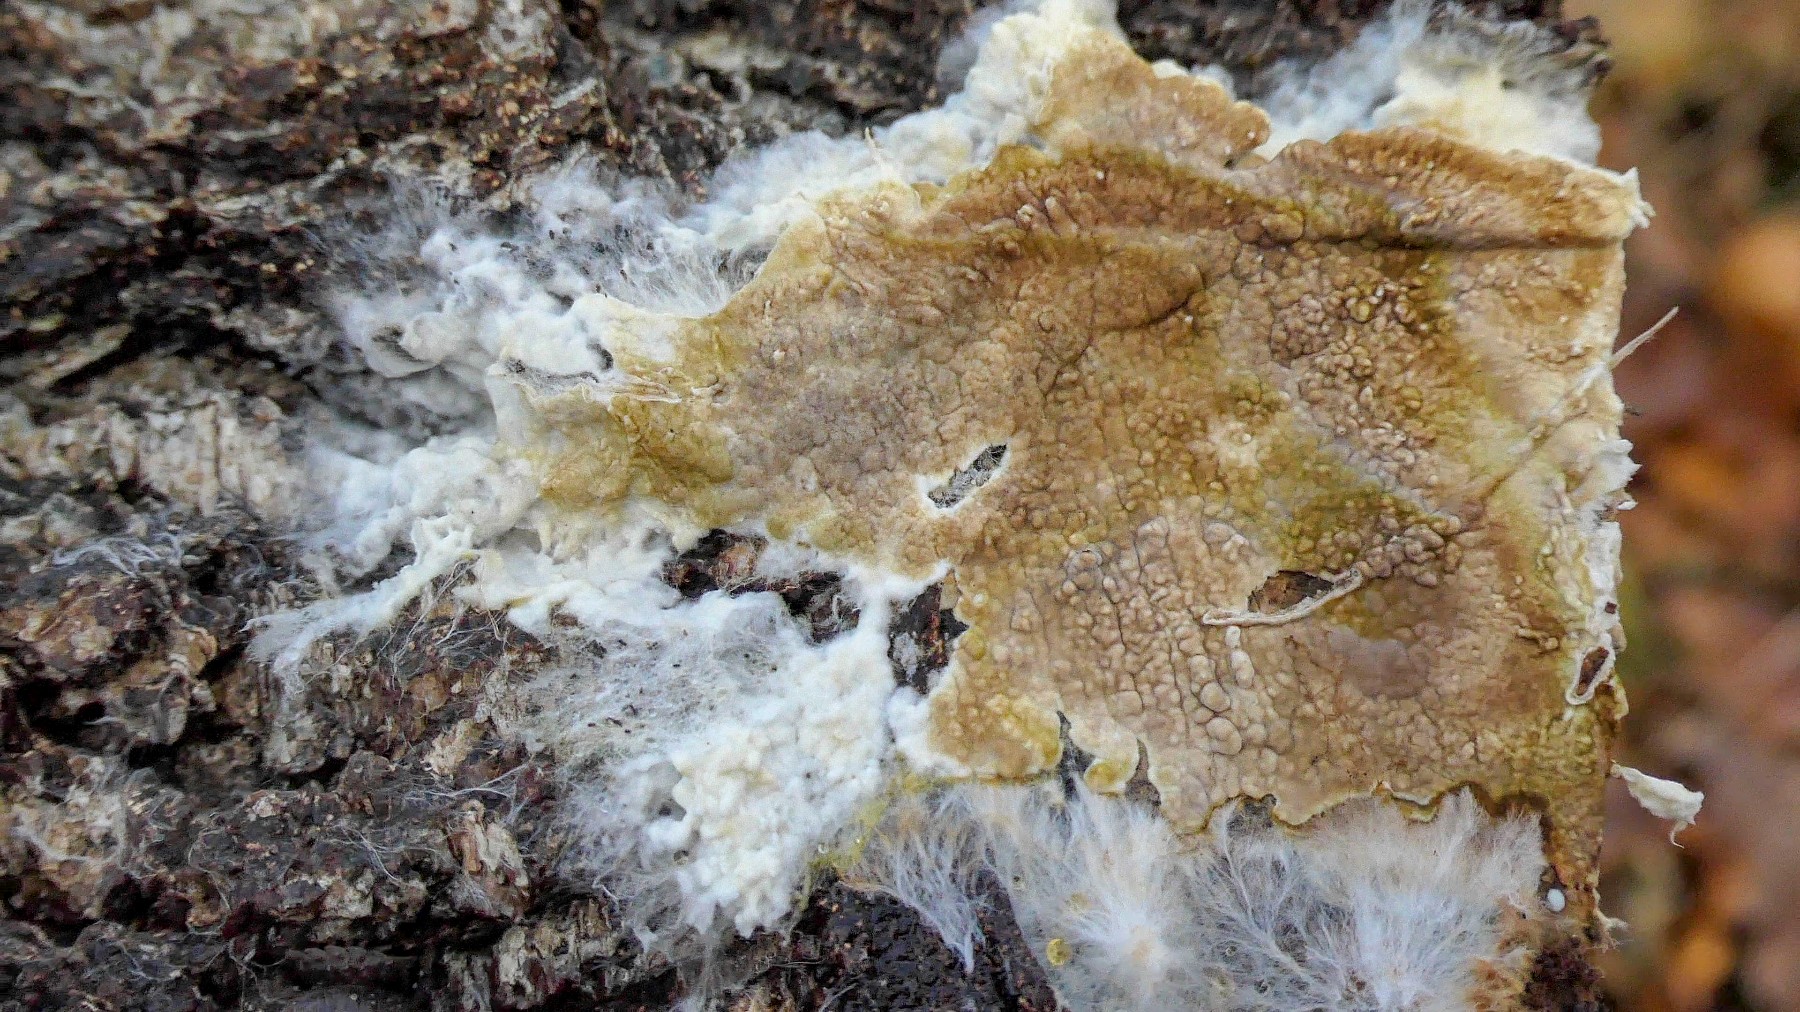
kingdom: Fungi
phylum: Basidiomycota
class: Agaricomycetes
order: Boletales
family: Coniophoraceae
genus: Coniophora
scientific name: Coniophora puteana
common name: gul tømmersvamp
